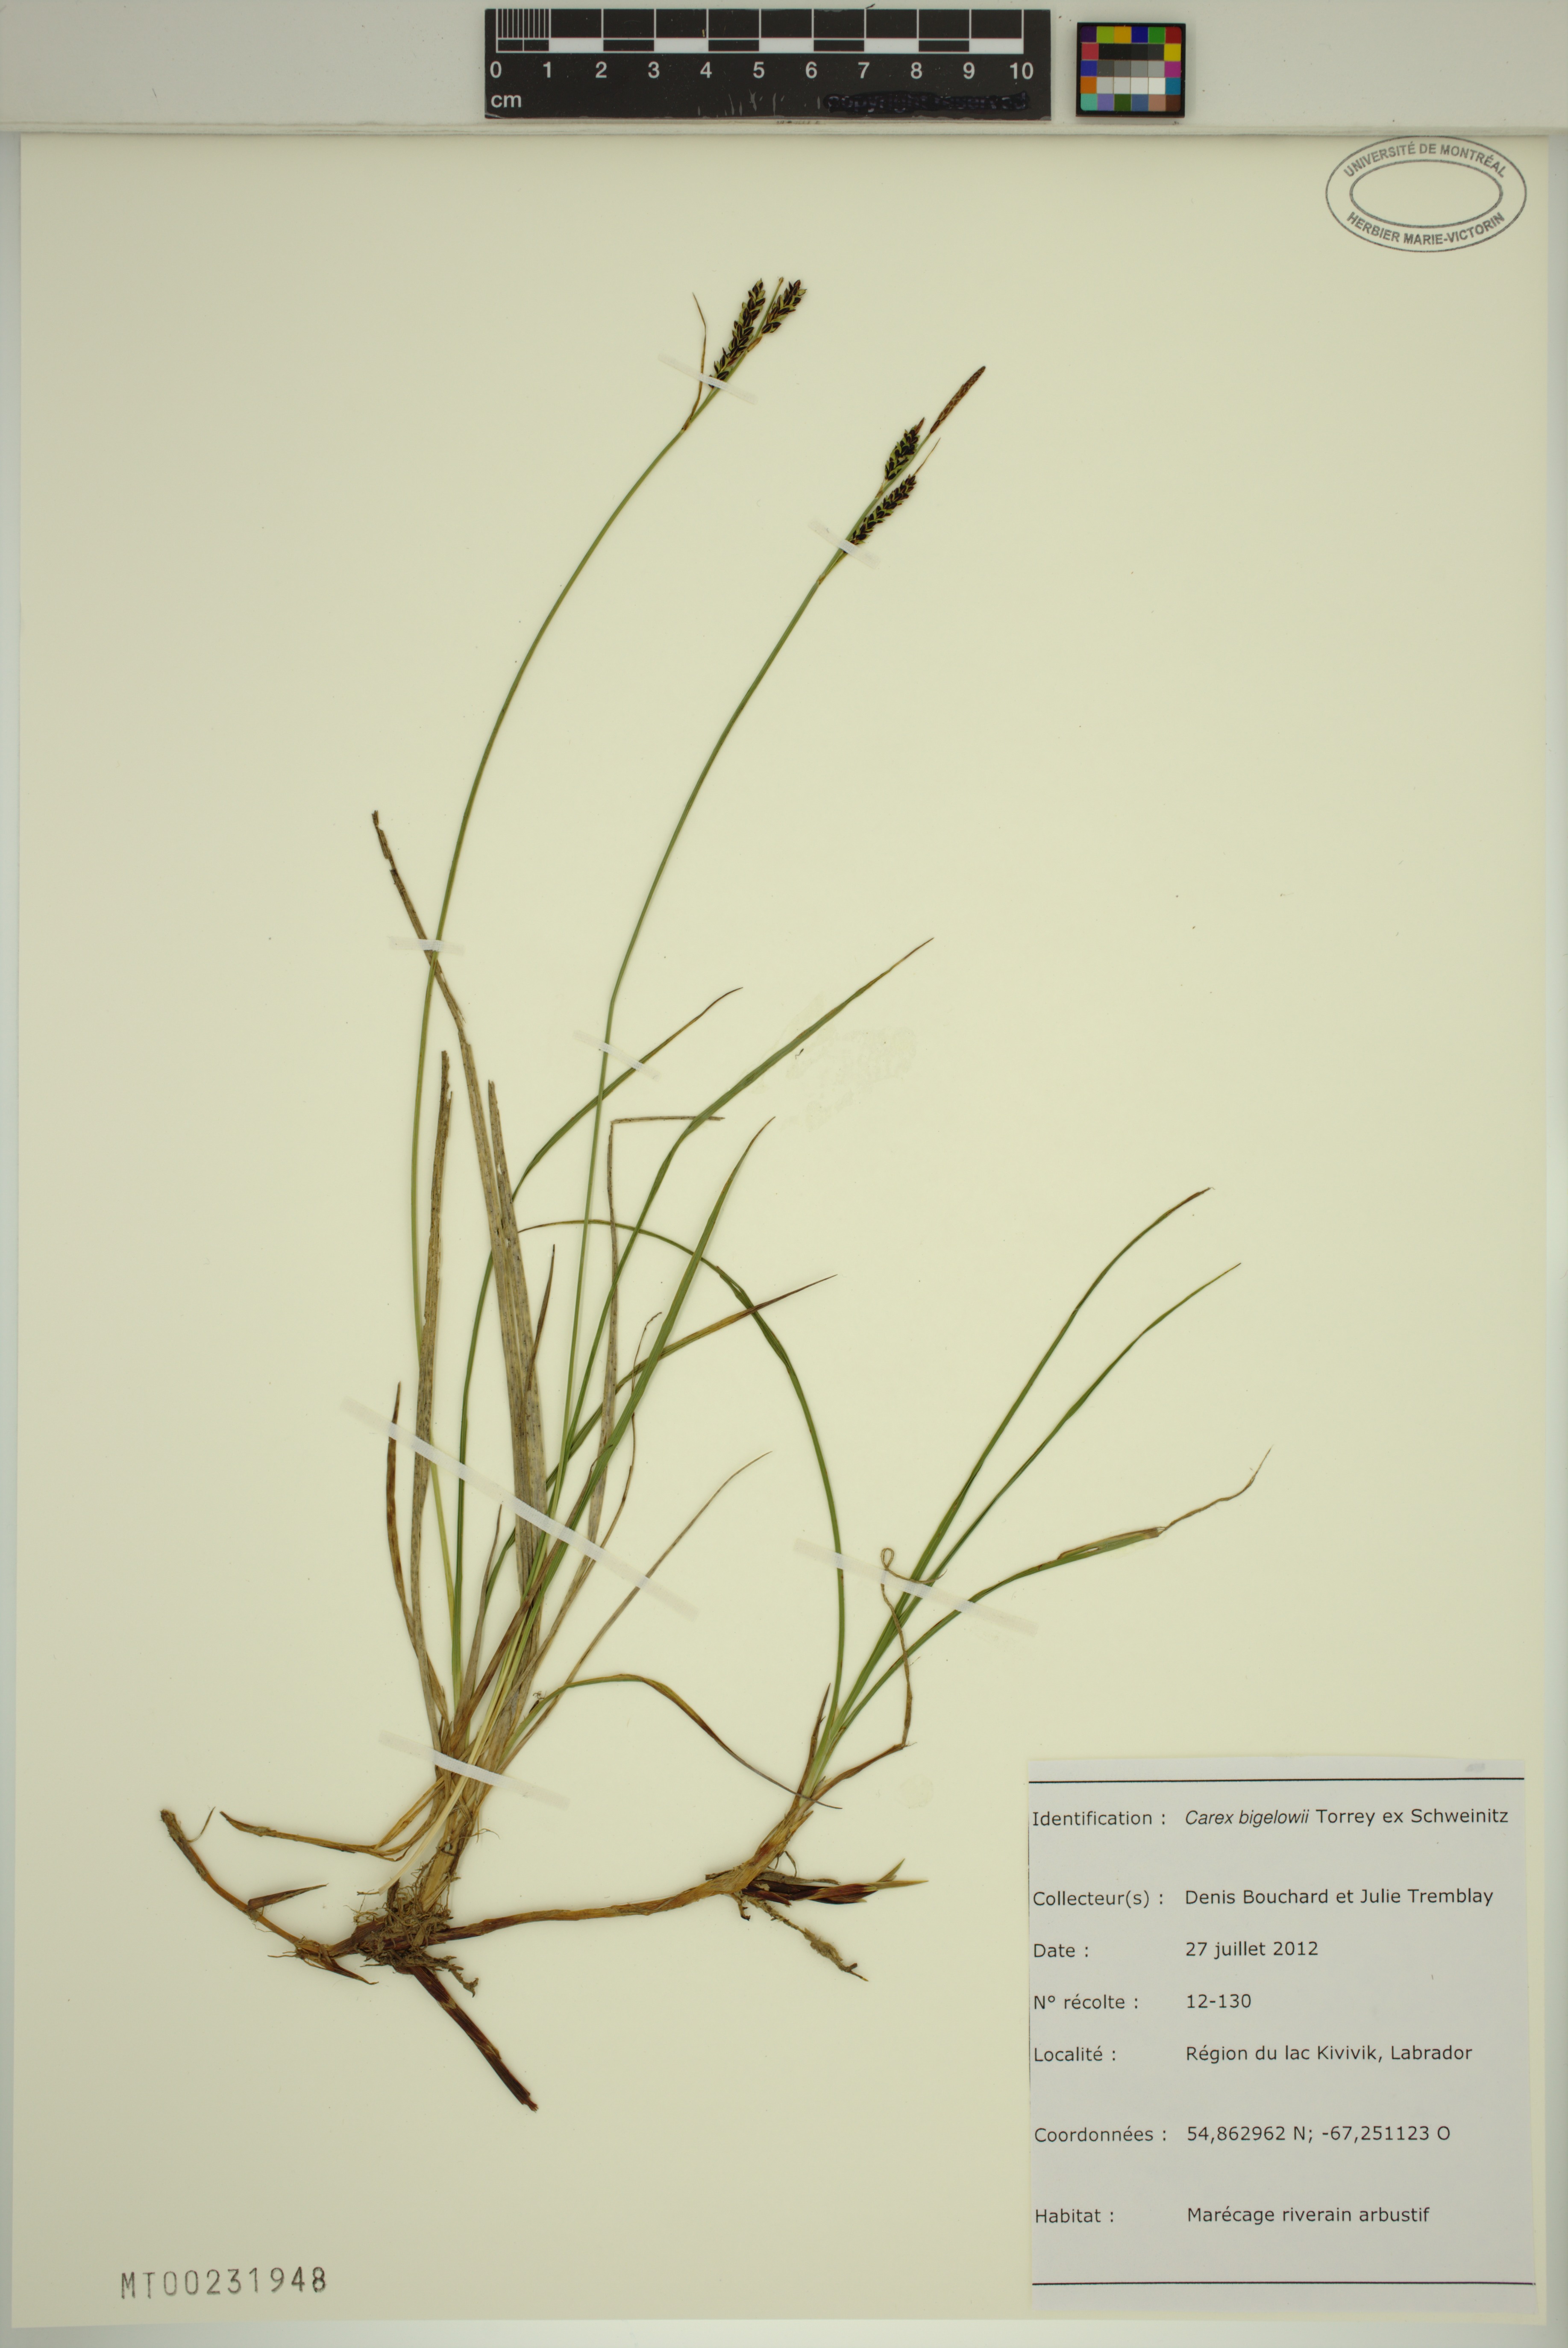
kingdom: Plantae
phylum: Tracheophyta
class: Liliopsida
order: Poales
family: Cyperaceae
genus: Carex
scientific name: Carex bigelowii
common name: Stiff sedge
